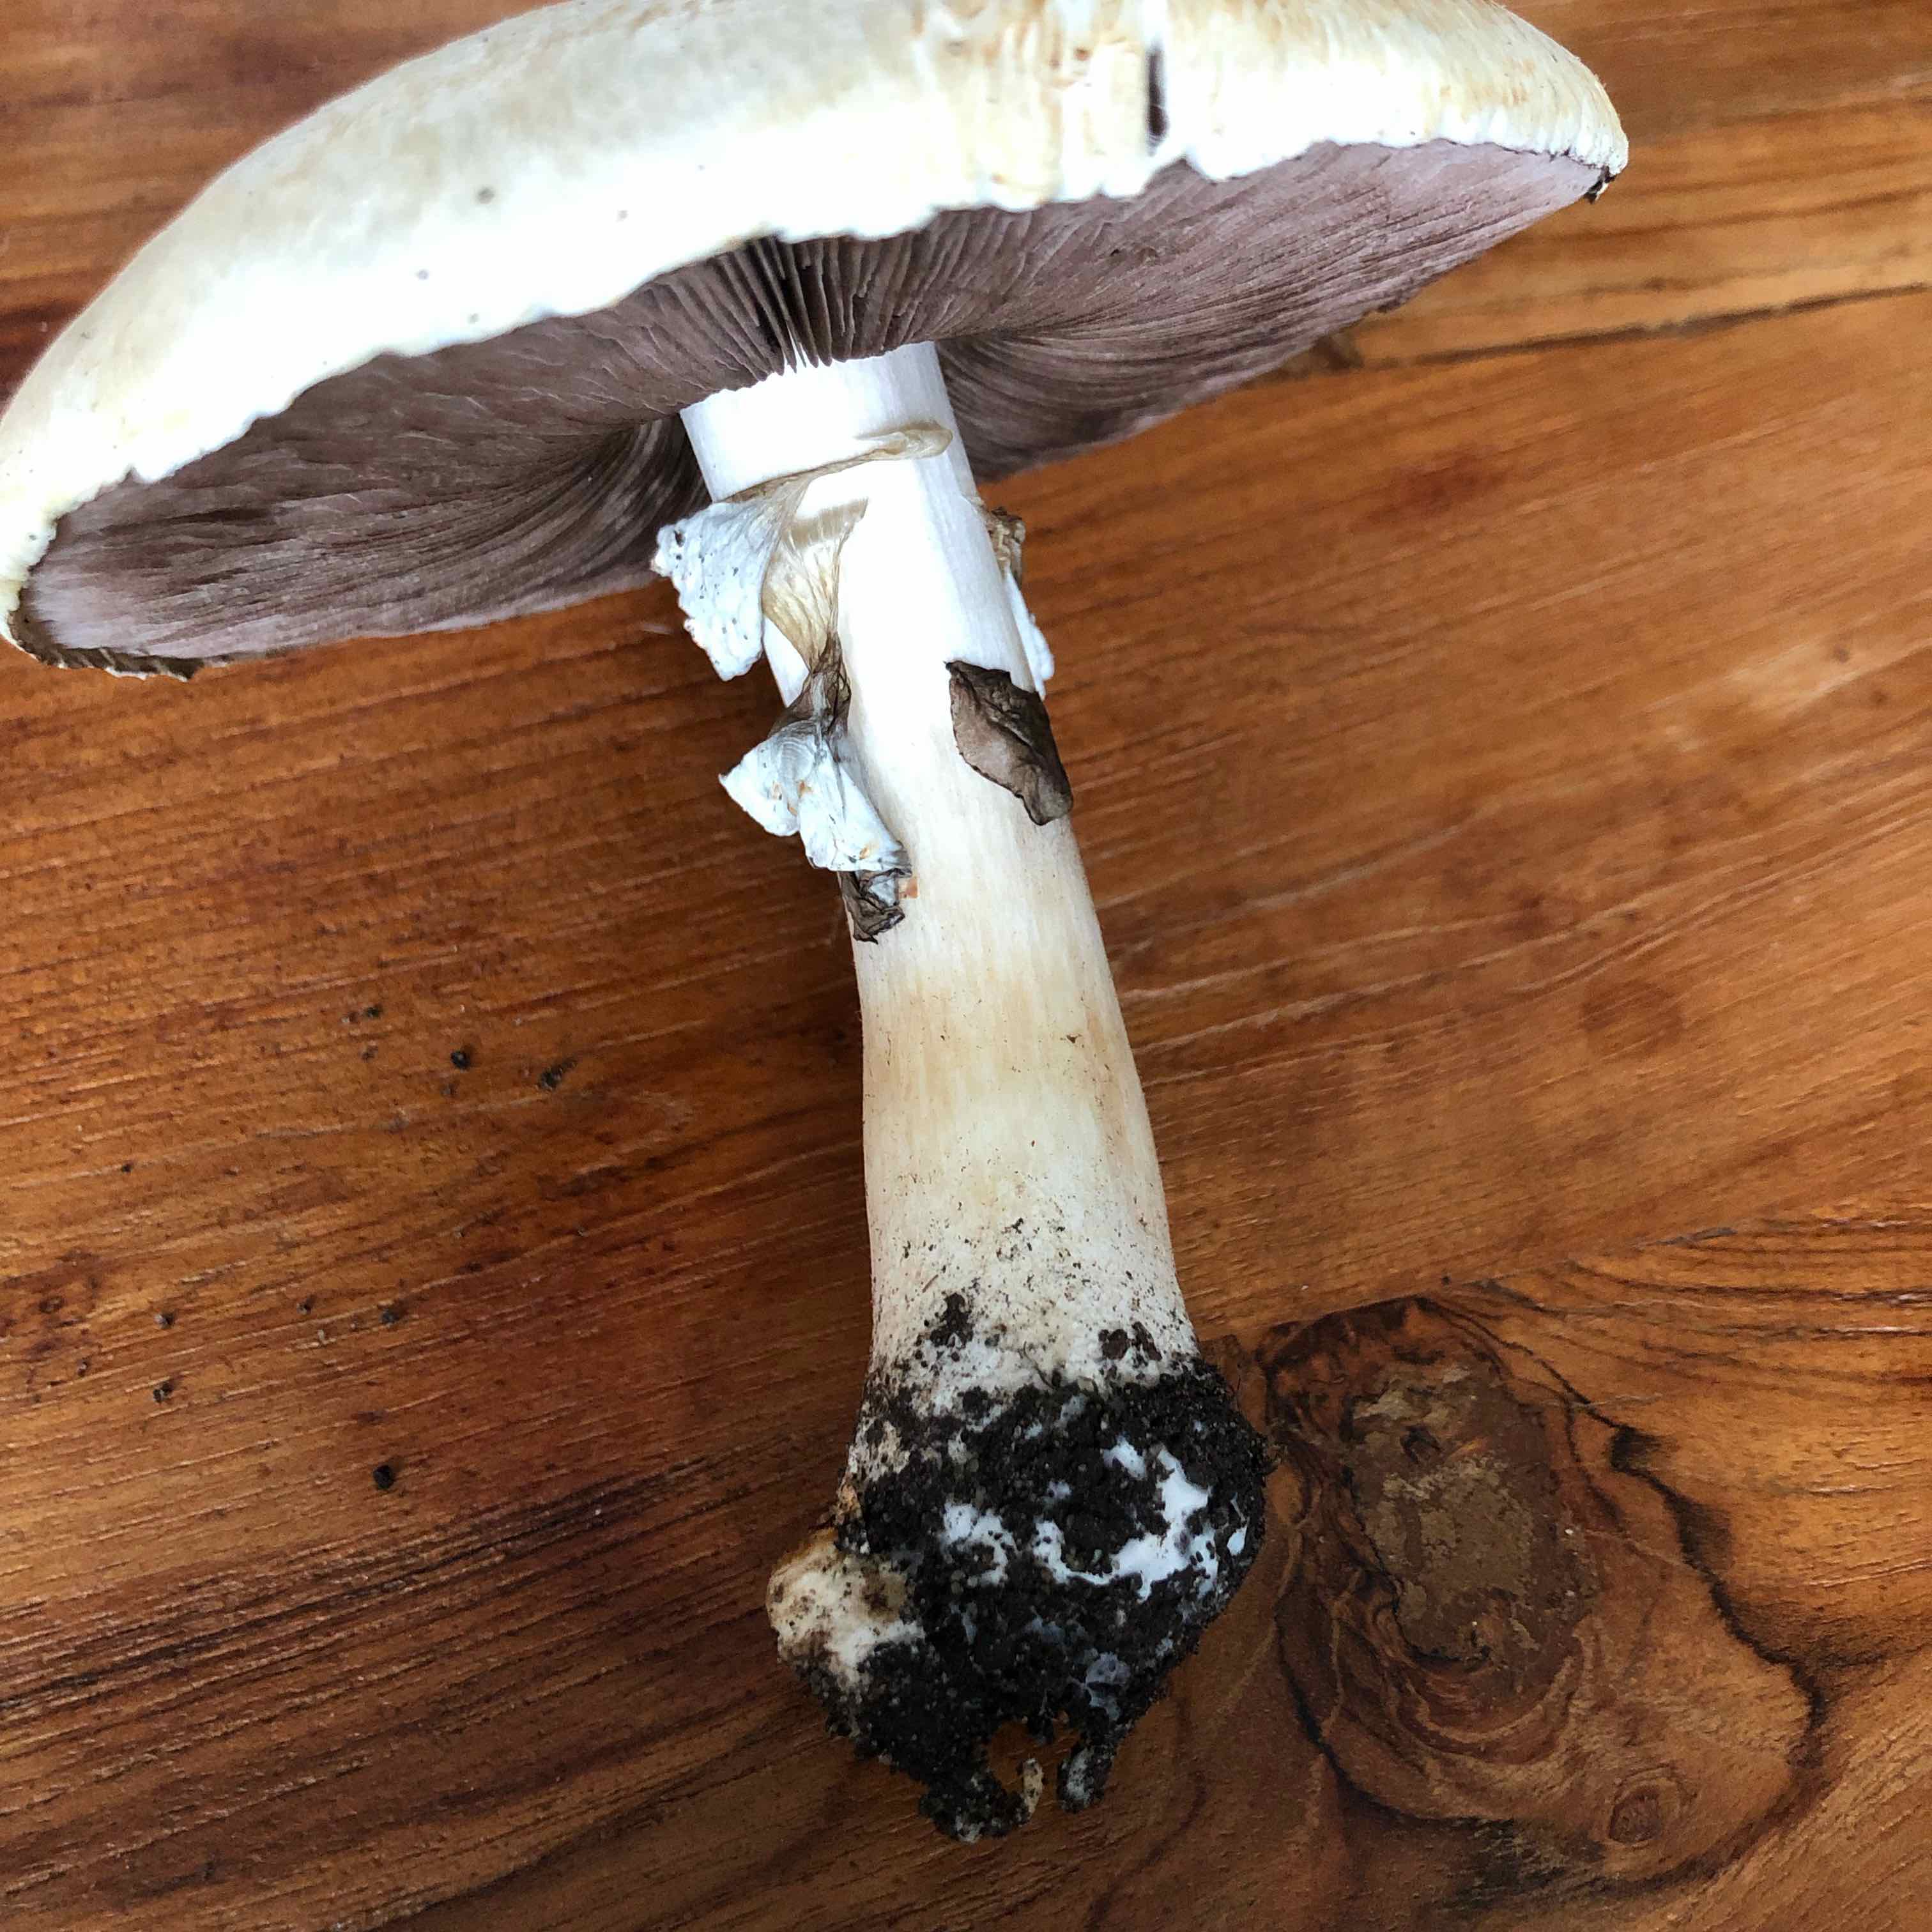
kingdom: Fungi
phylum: Basidiomycota
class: Agaricomycetes
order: Agaricales
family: Agaricaceae
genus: Agaricus
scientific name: Agaricus arvensis
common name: ager-champignon
